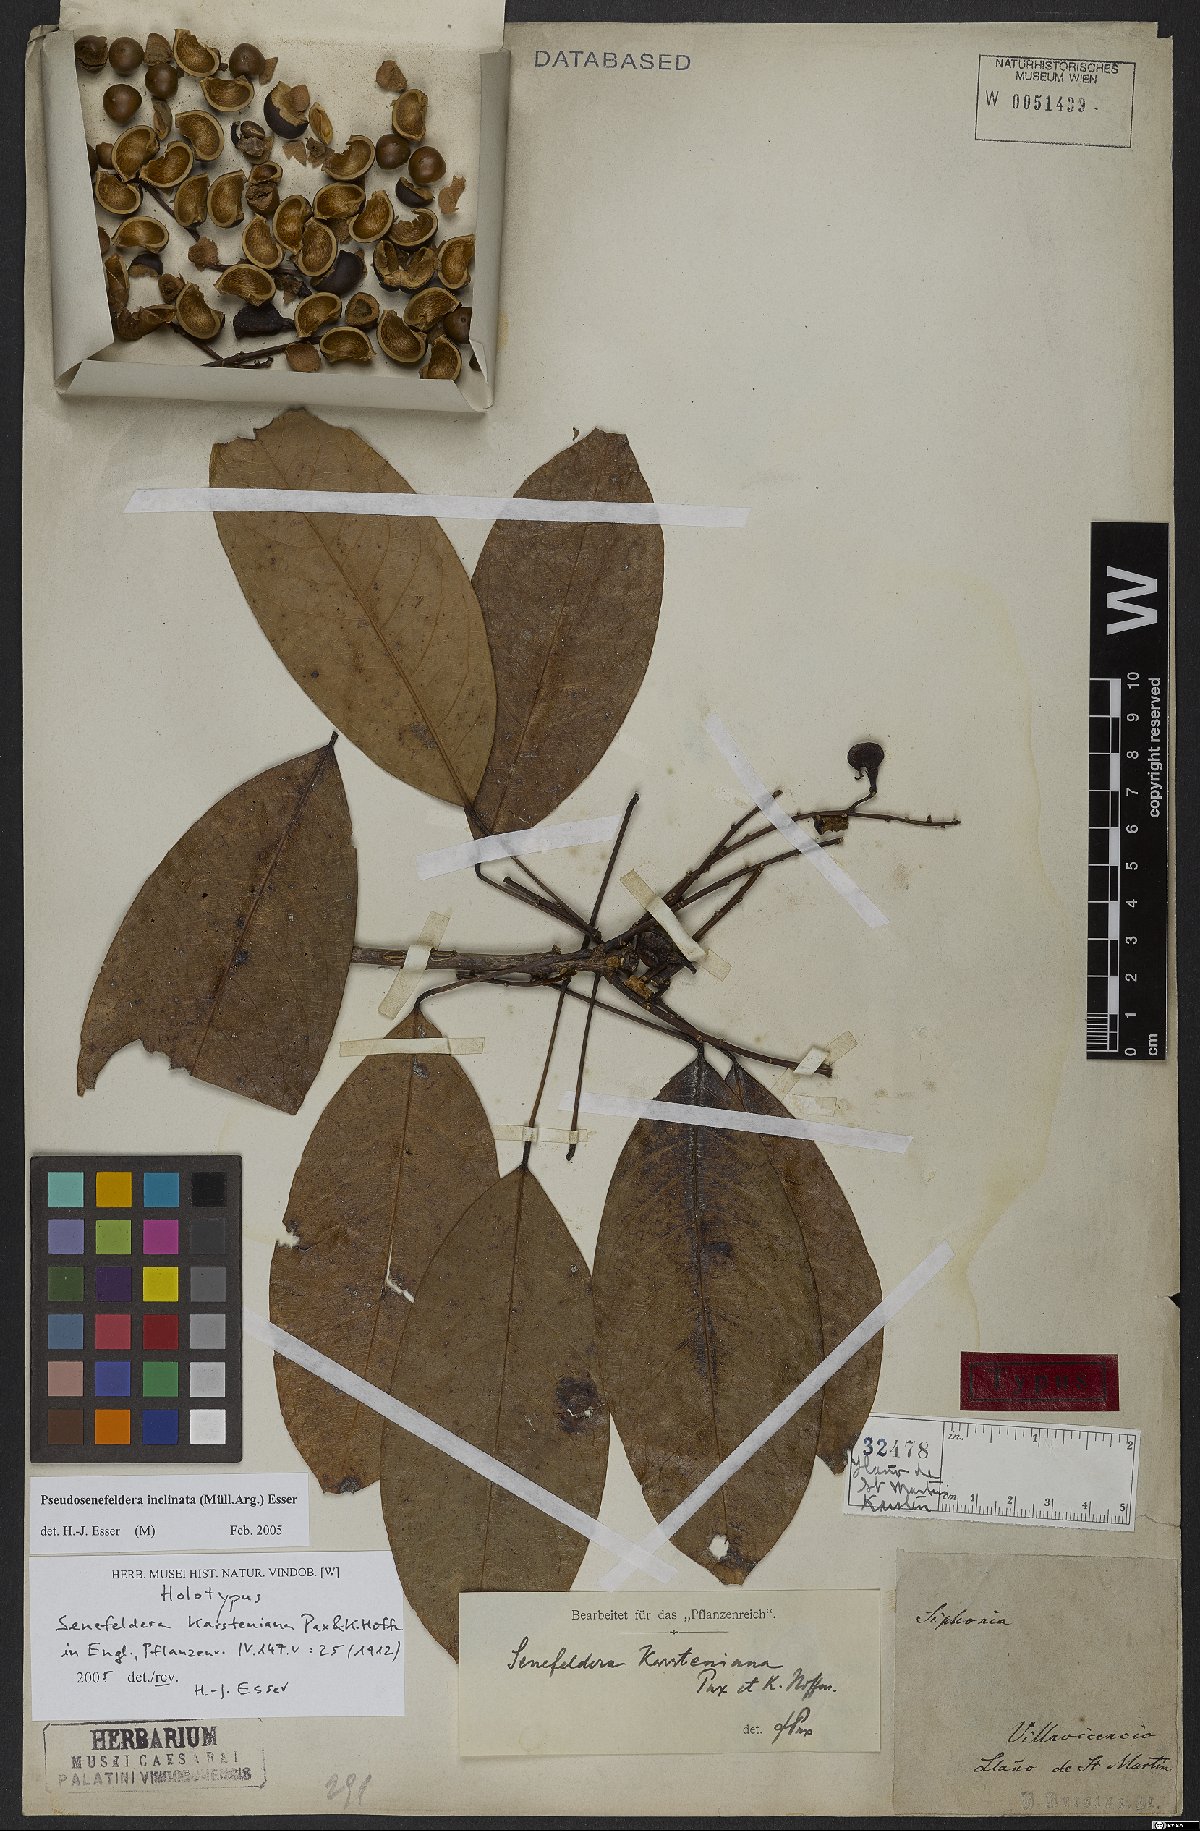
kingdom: Plantae
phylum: Tracheophyta
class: Magnoliopsida
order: Malpighiales
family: Euphorbiaceae
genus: Pseudosenefeldera
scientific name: Pseudosenefeldera inclinata
